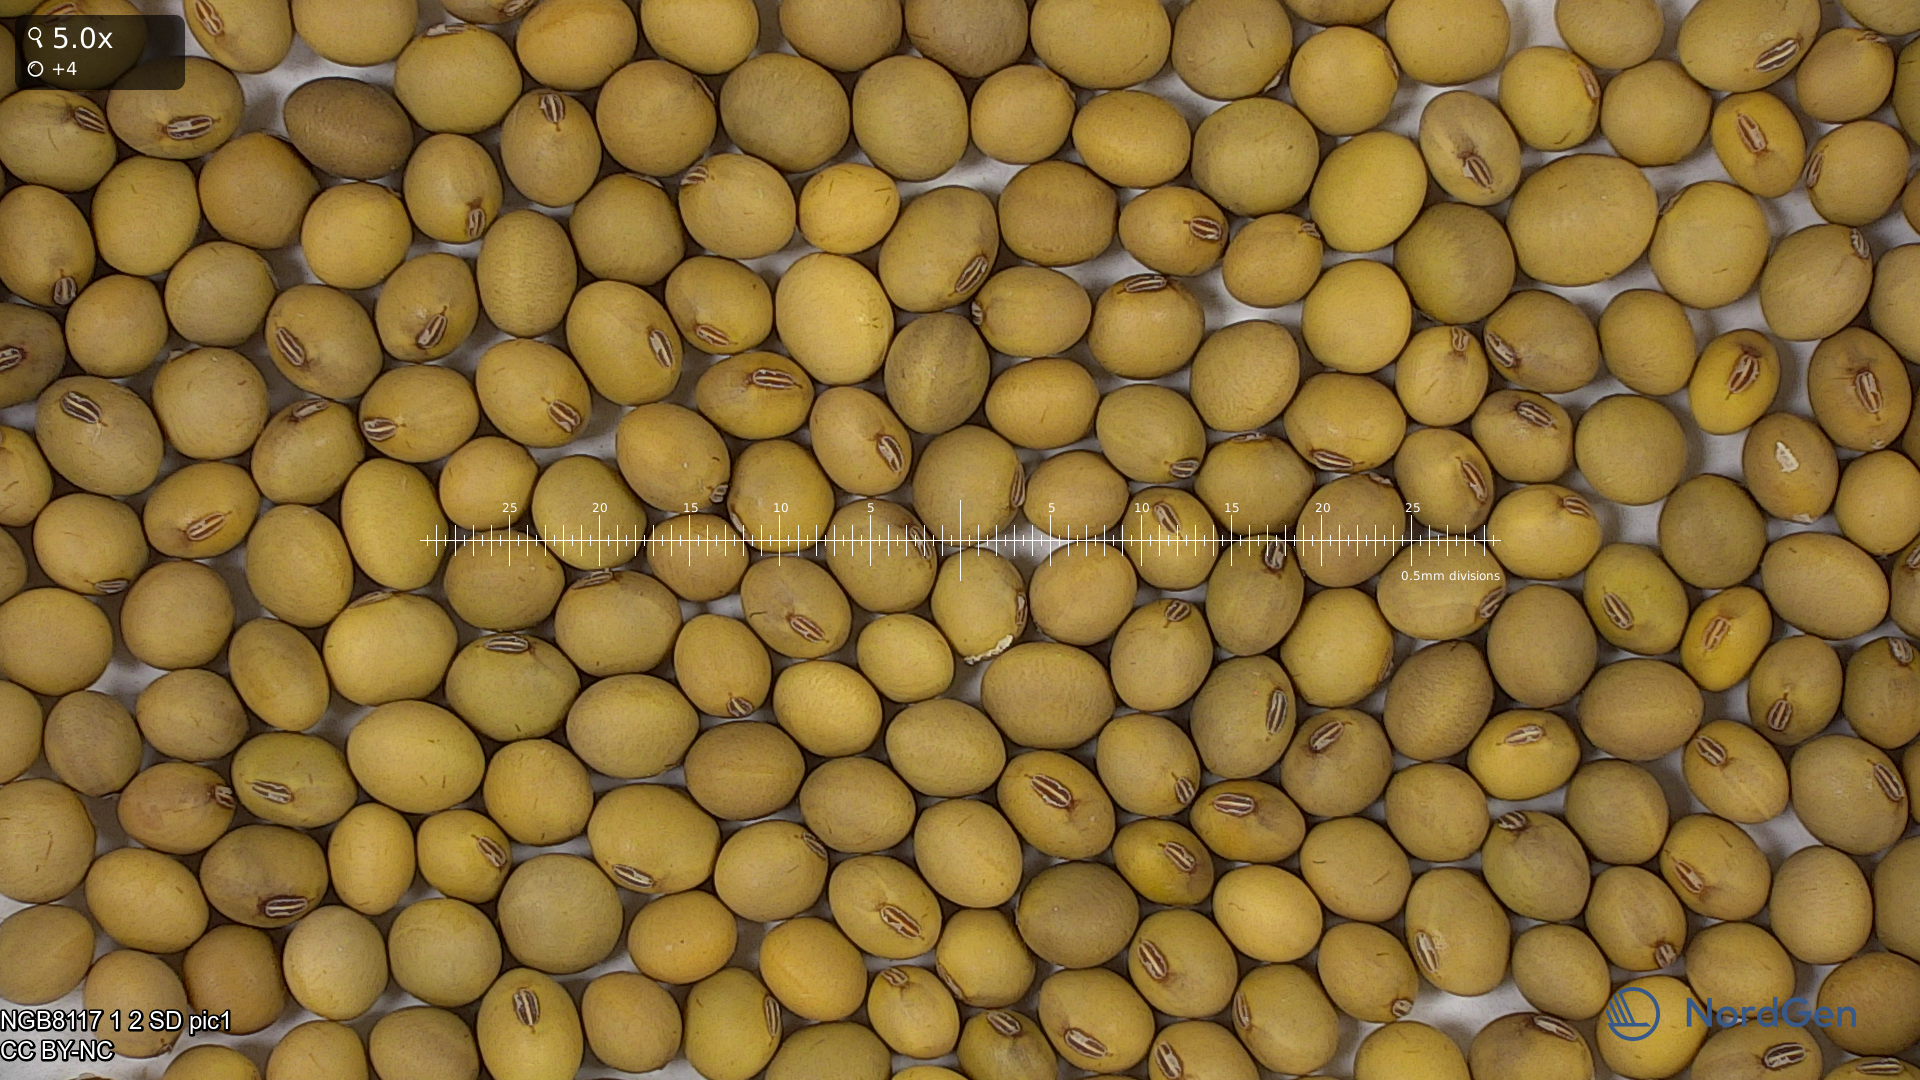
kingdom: Plantae
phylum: Tracheophyta
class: Magnoliopsida
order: Fabales
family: Fabaceae
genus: Glycine
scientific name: Glycine max
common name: Soya-bean
